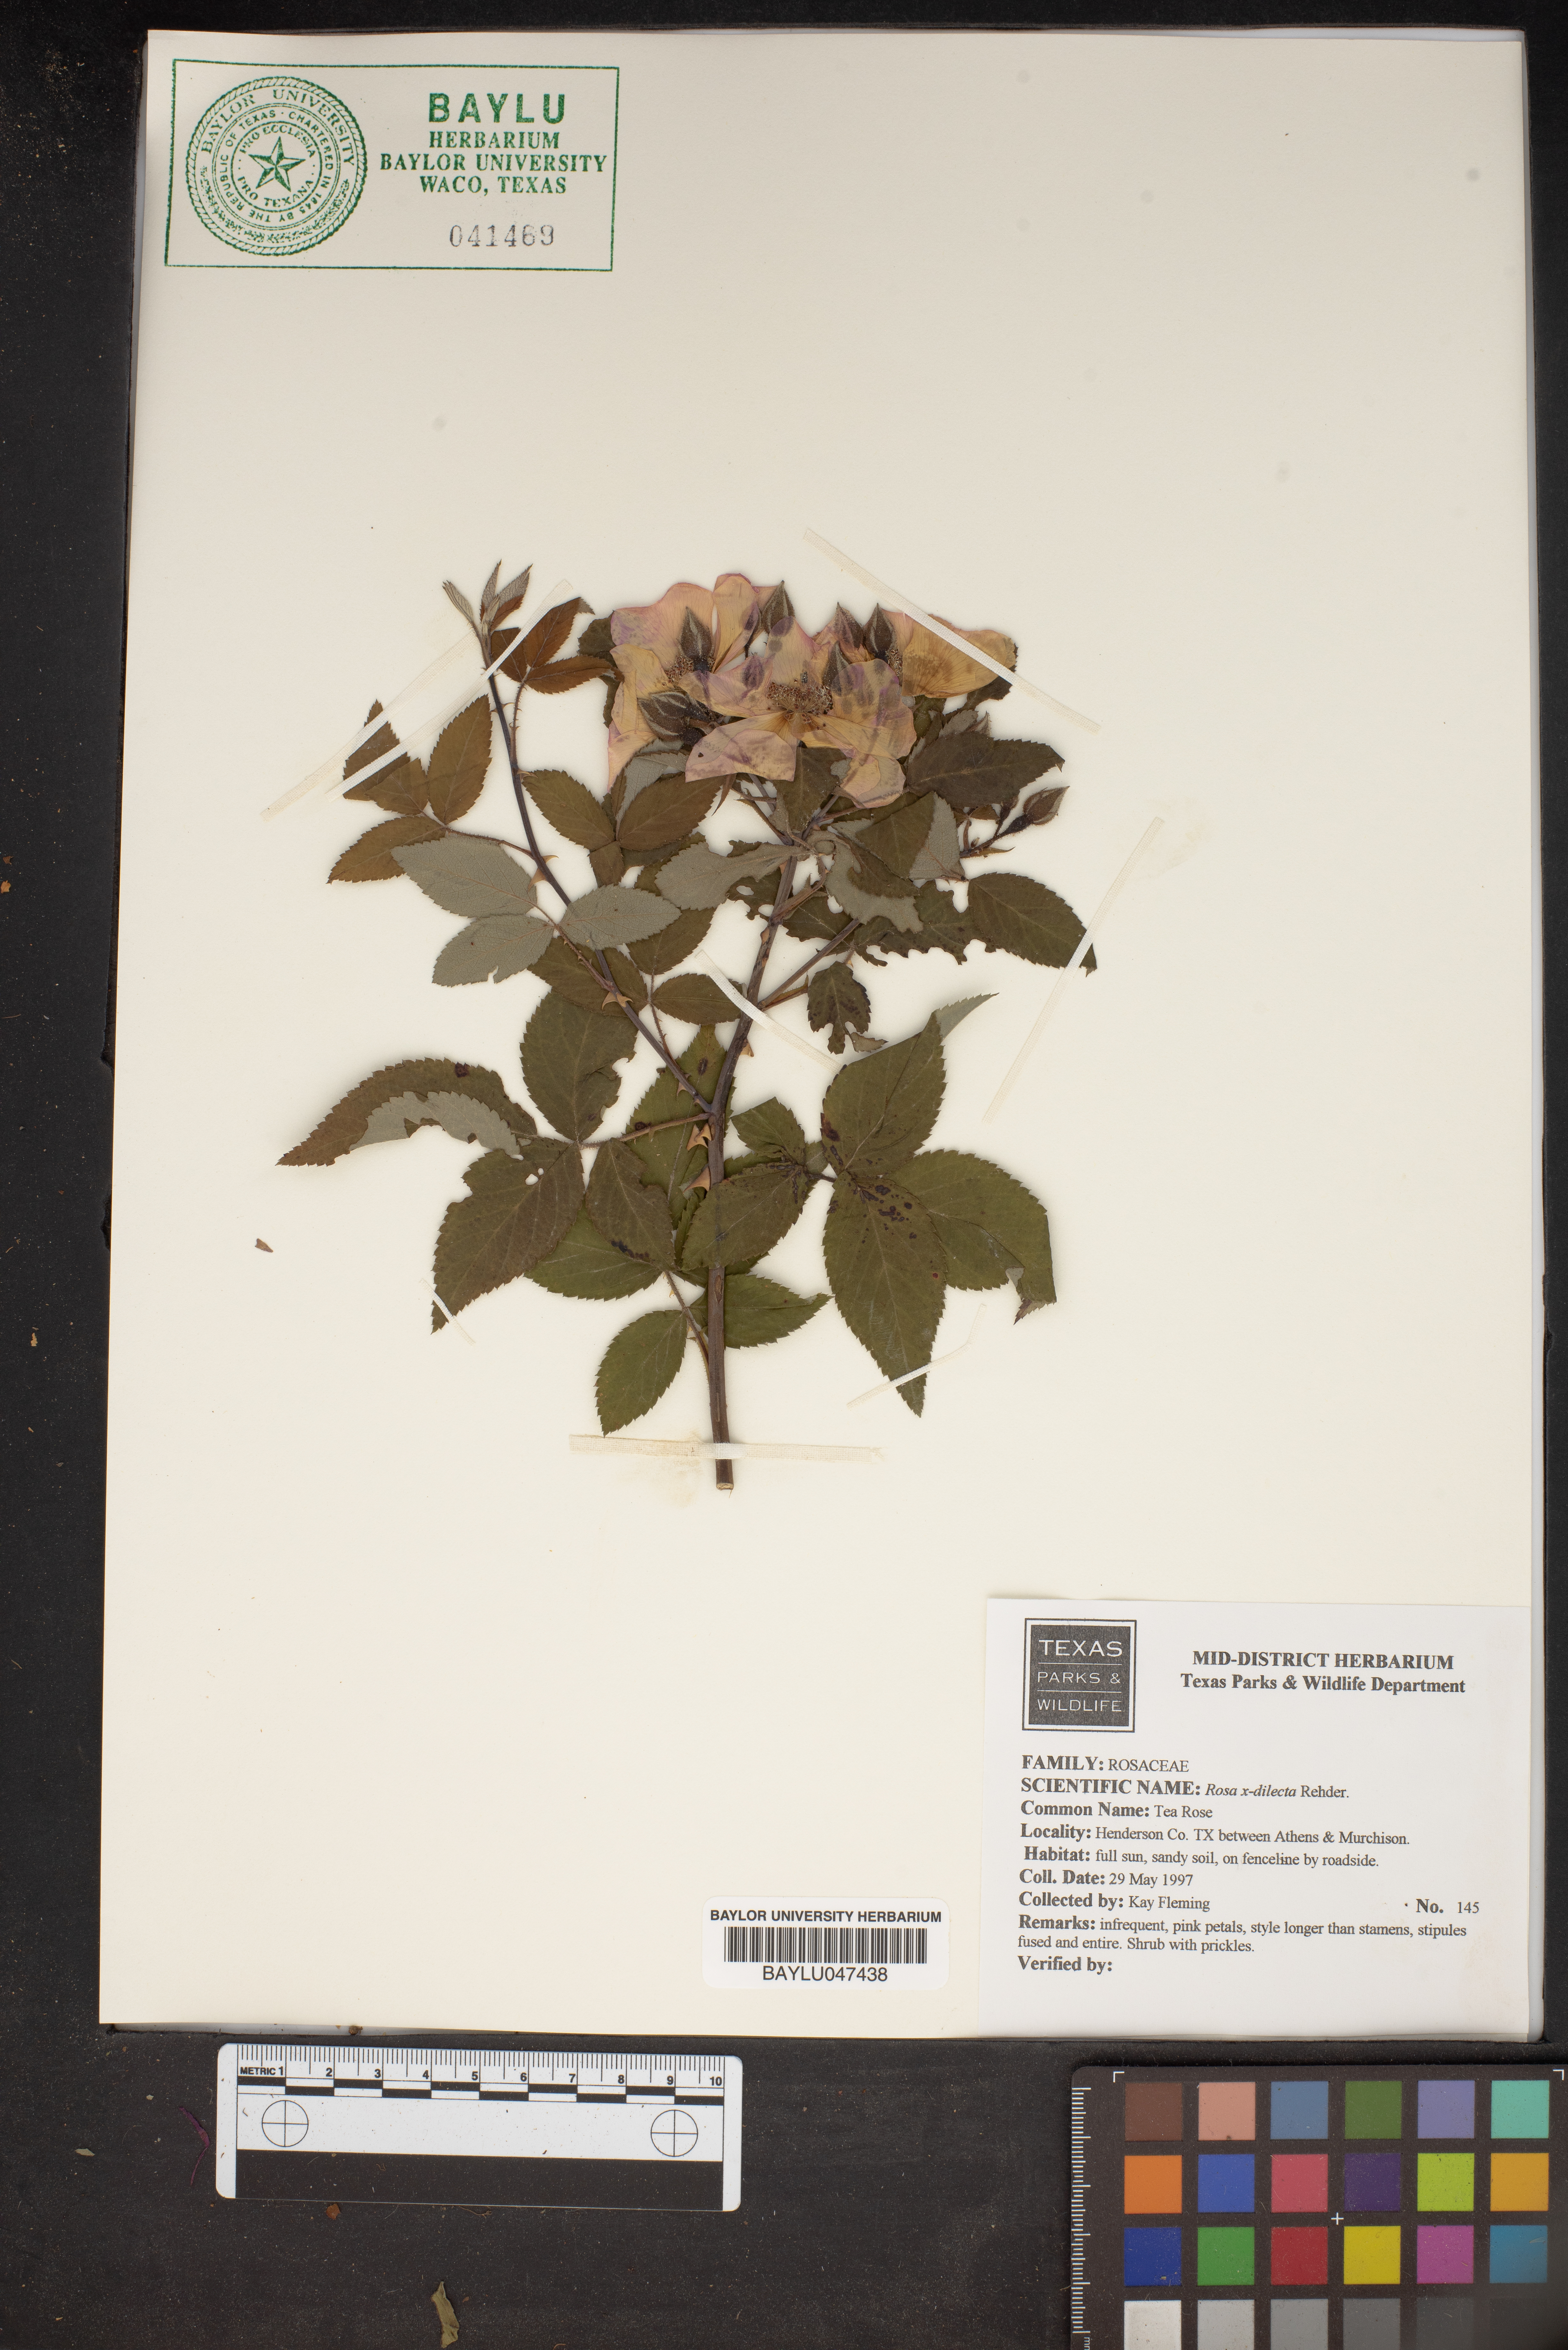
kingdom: Plantae
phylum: Tracheophyta
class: Magnoliopsida
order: Rosales
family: Rosaceae
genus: Rosa
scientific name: Rosa dilecta
